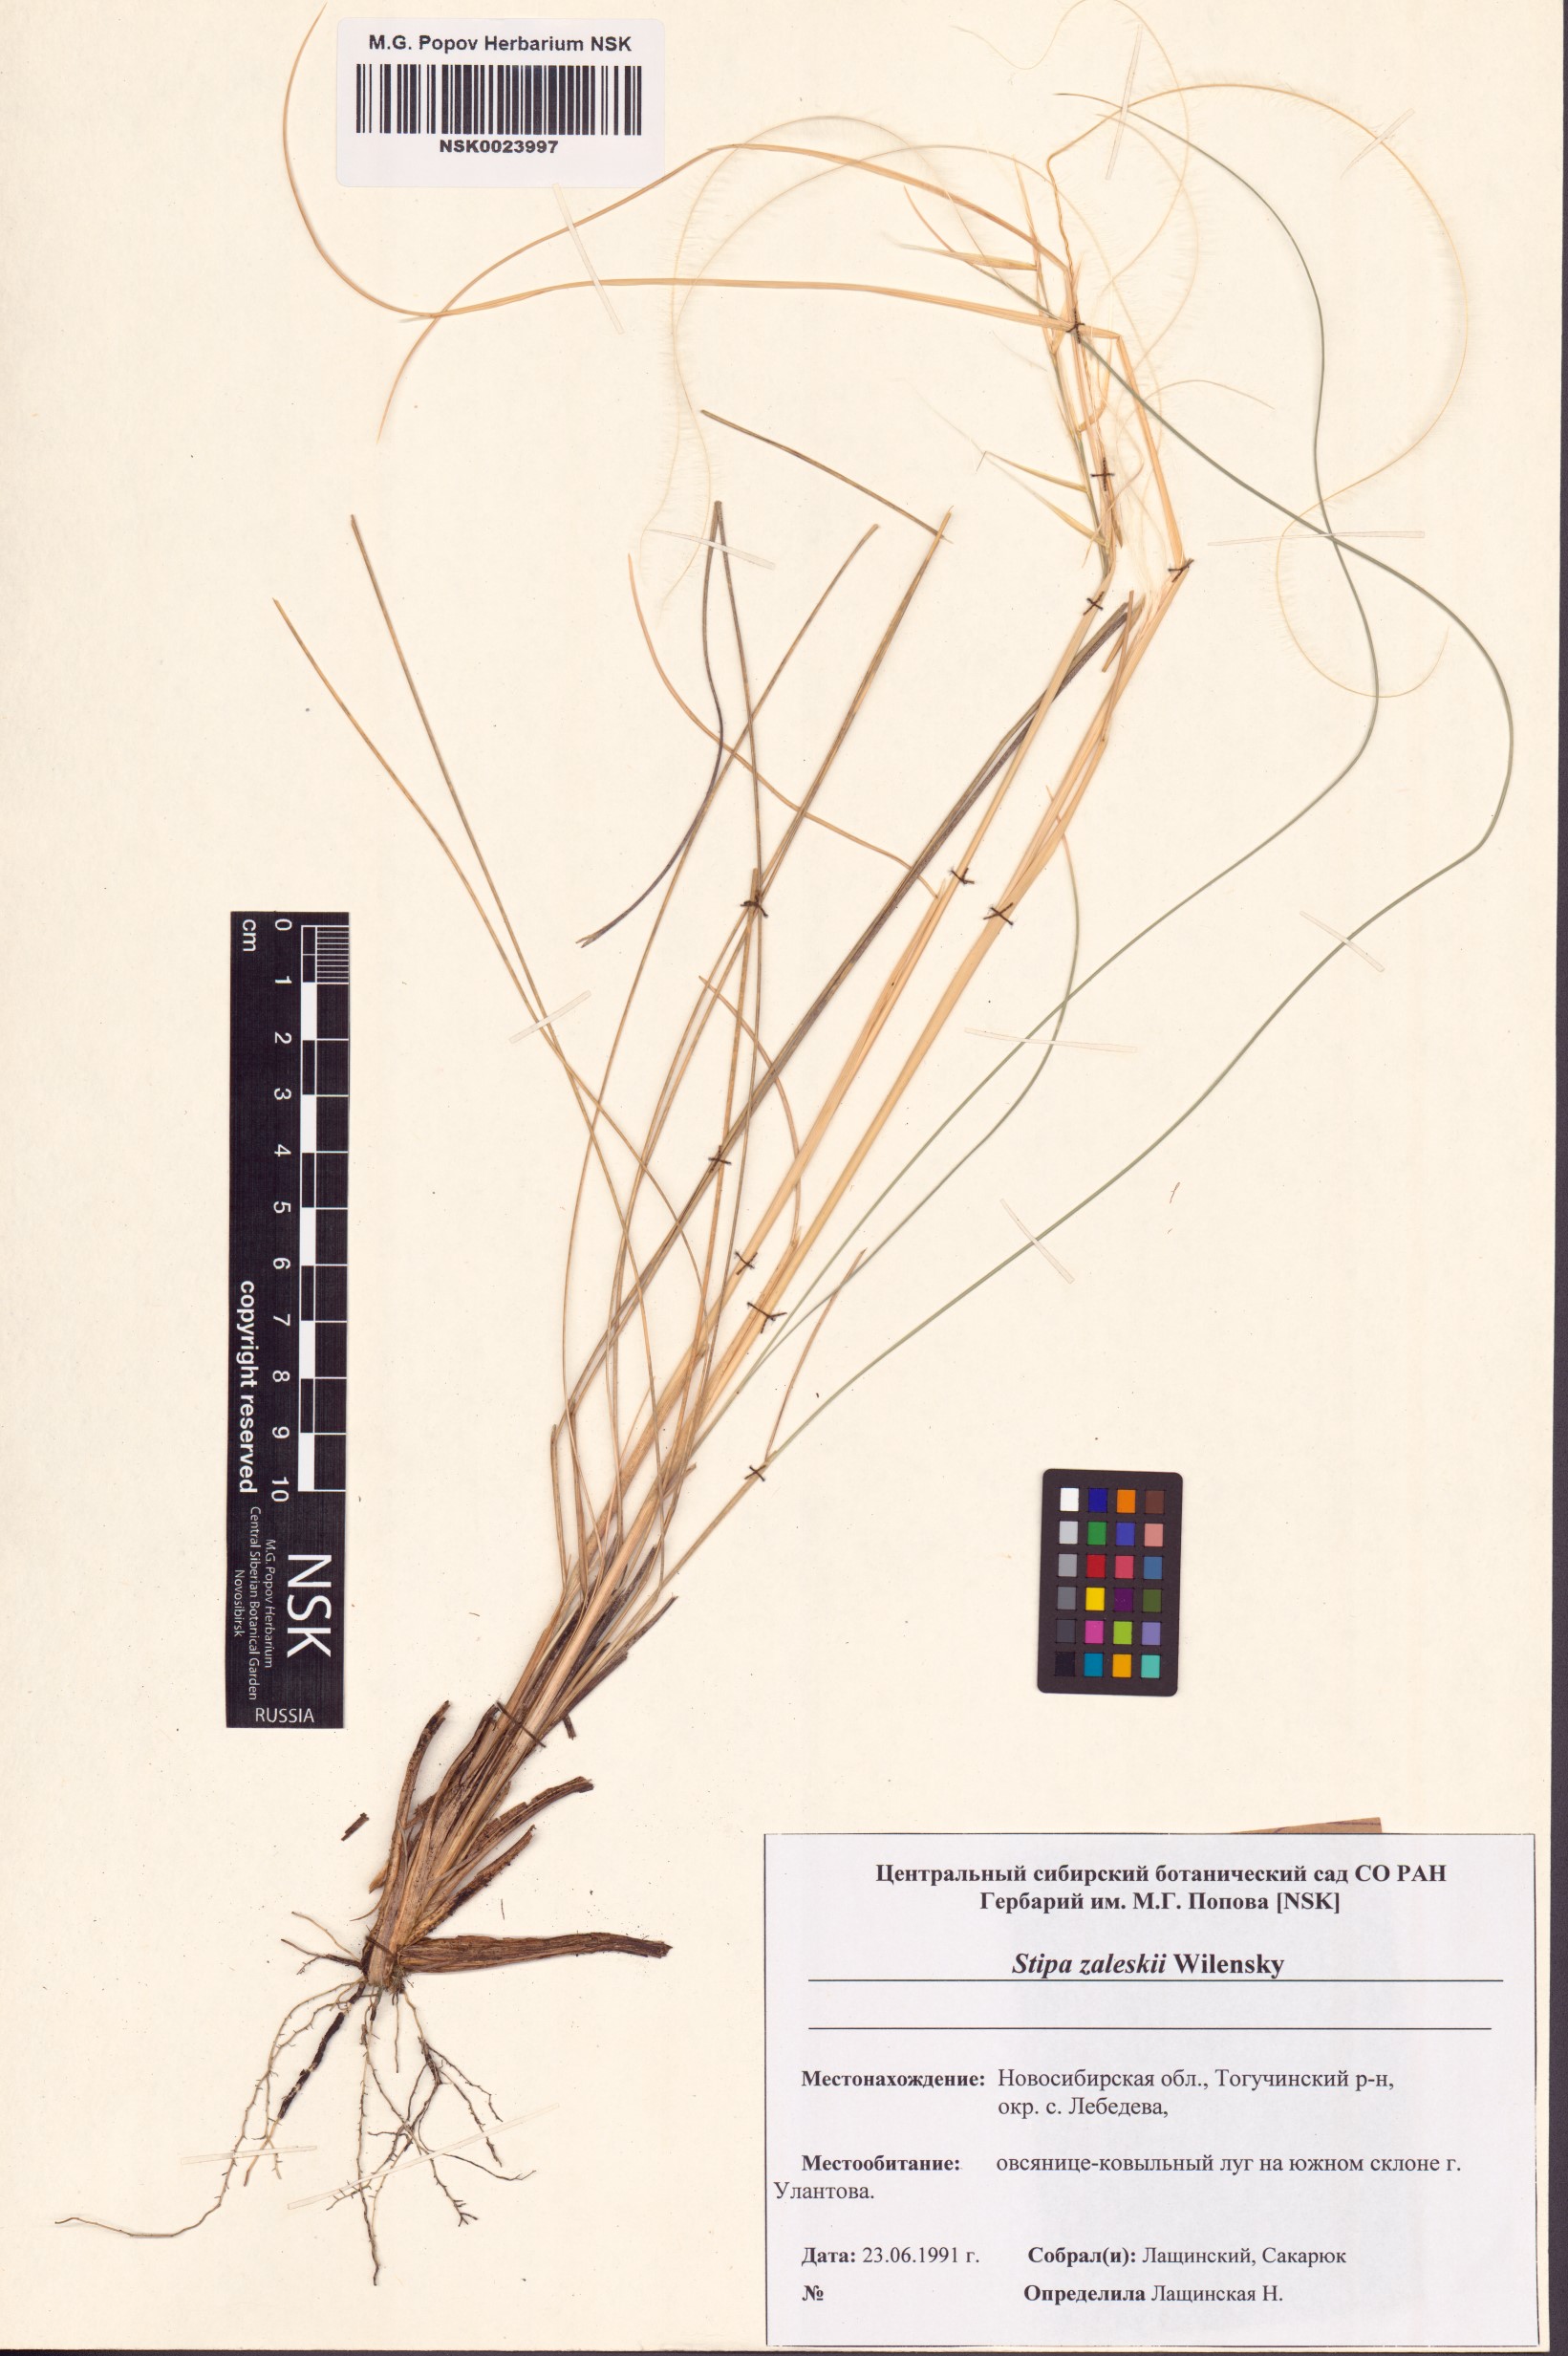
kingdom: Plantae
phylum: Tracheophyta
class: Liliopsida
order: Poales
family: Poaceae
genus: Stipa
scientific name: Stipa zalesskii
